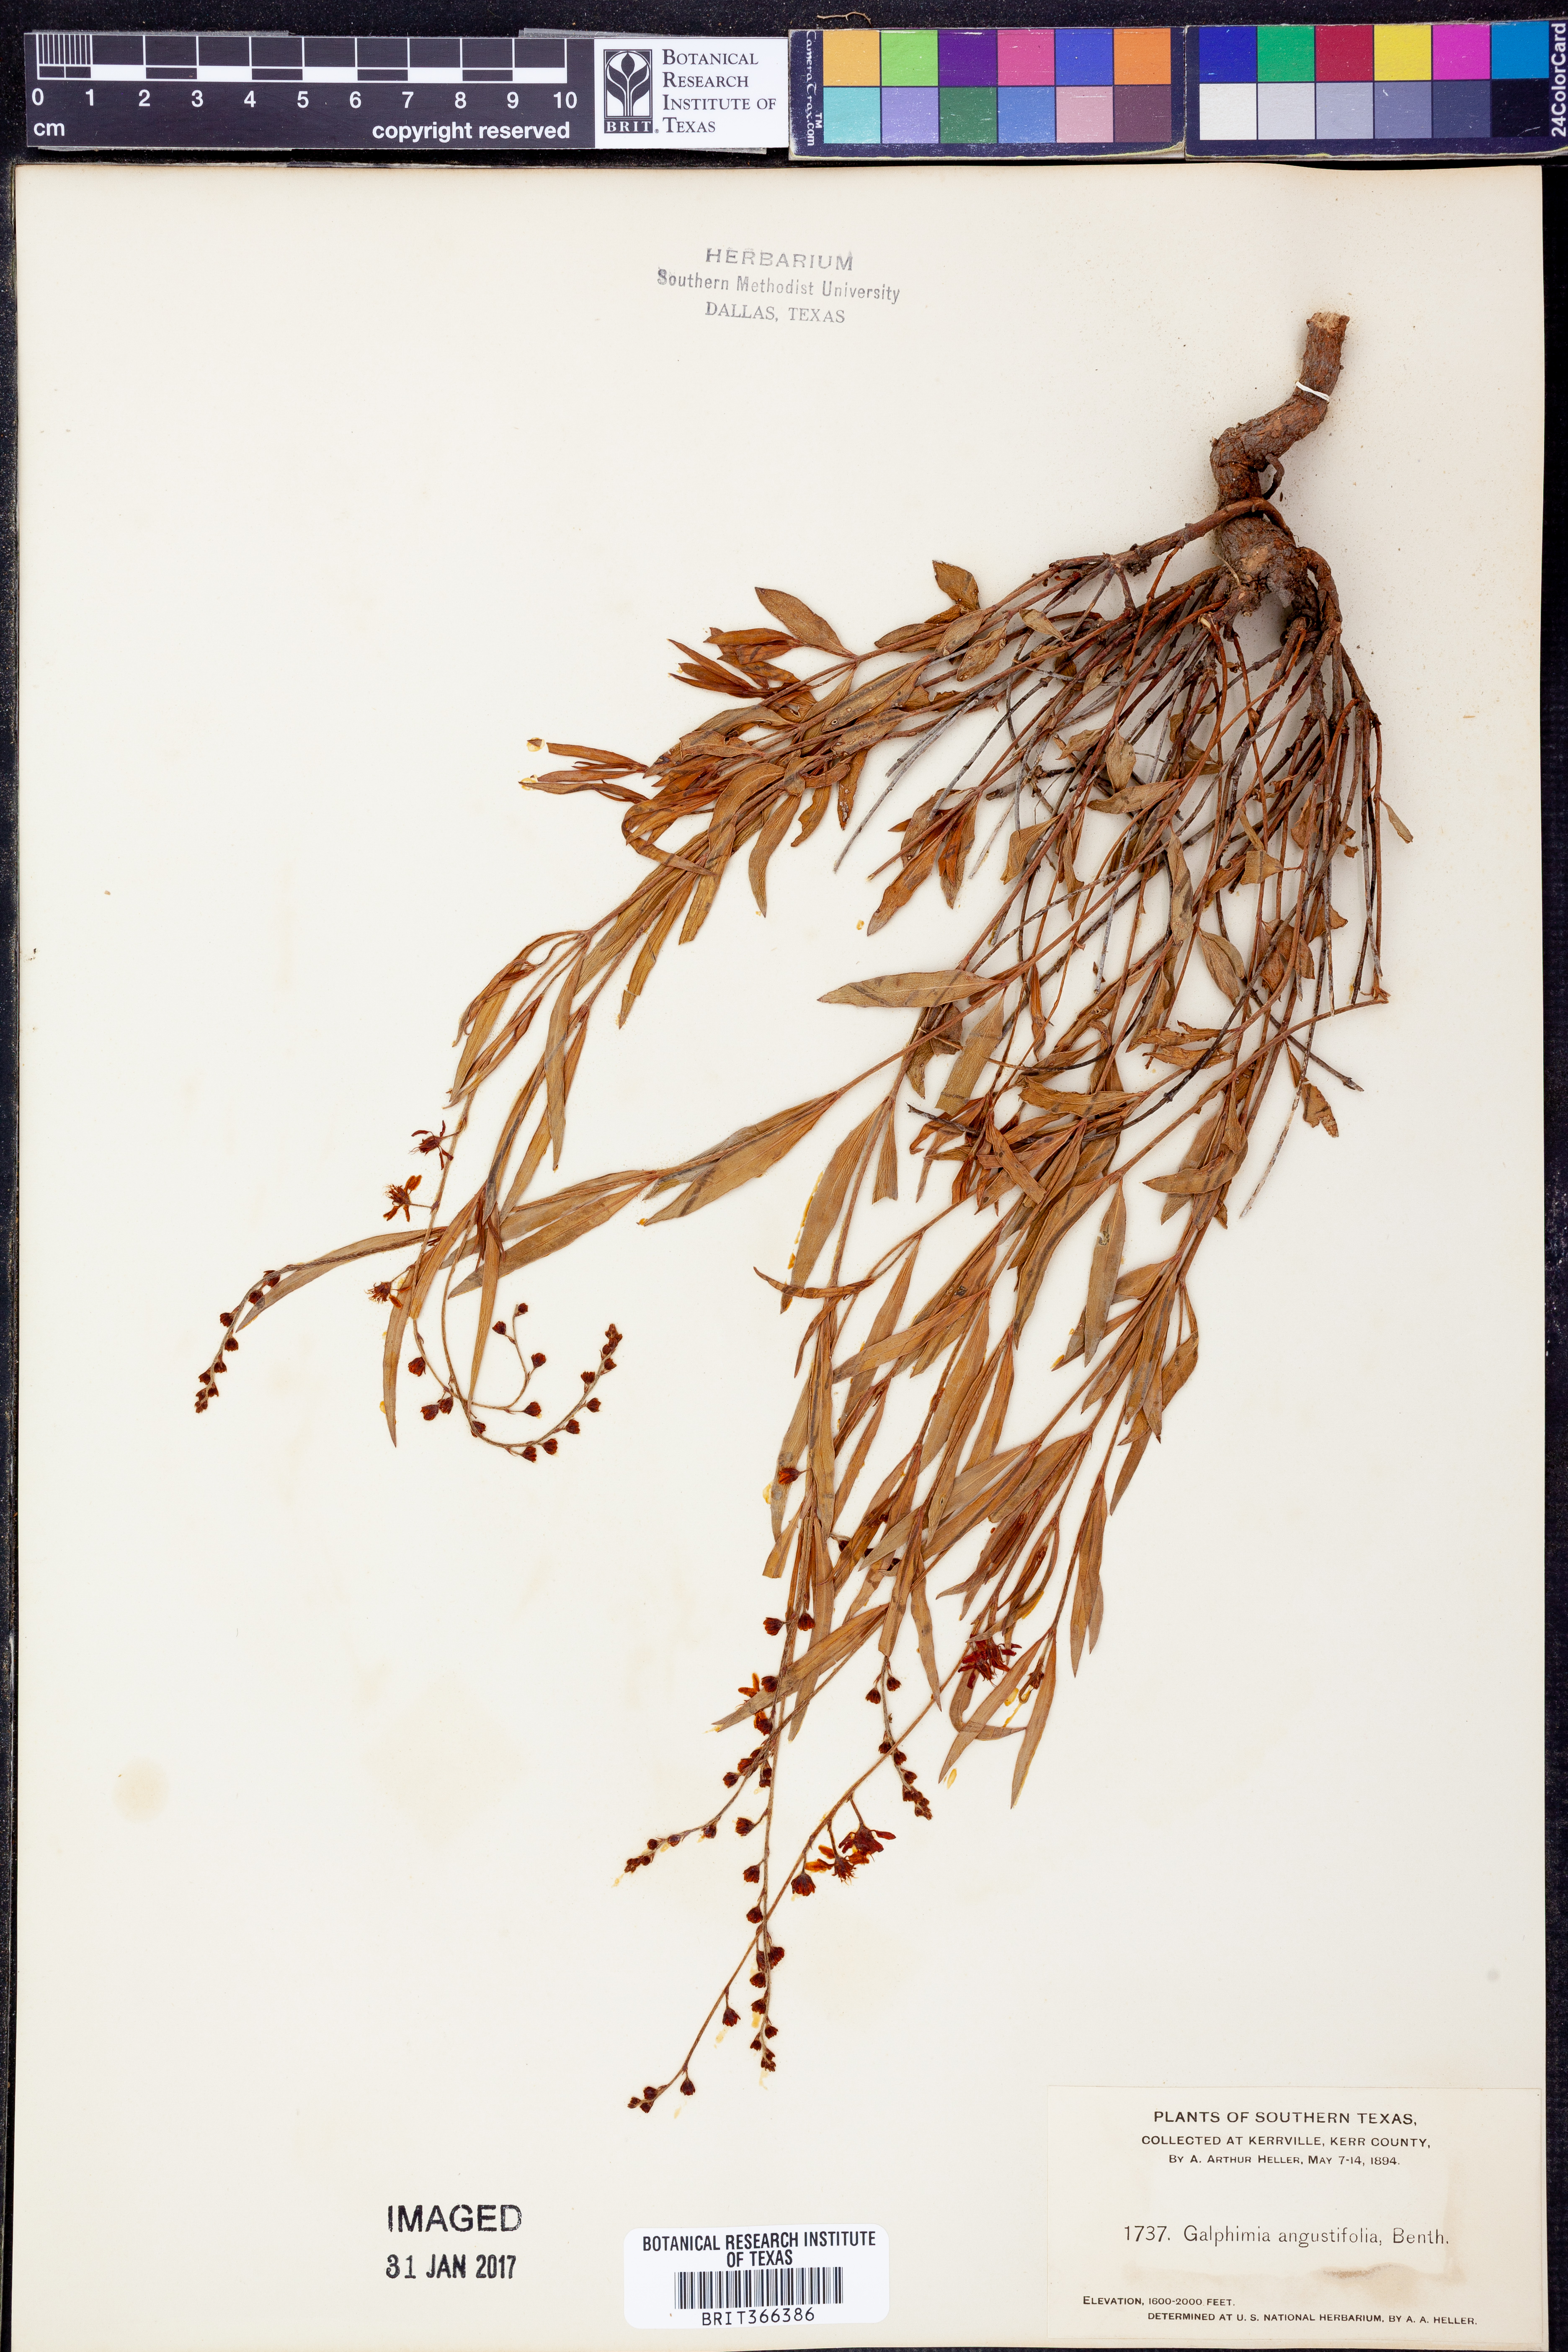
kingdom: Plantae
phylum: Tracheophyta
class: Magnoliopsida
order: Malpighiales
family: Malpighiaceae
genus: Galphimia
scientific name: Galphimia angustifolia
